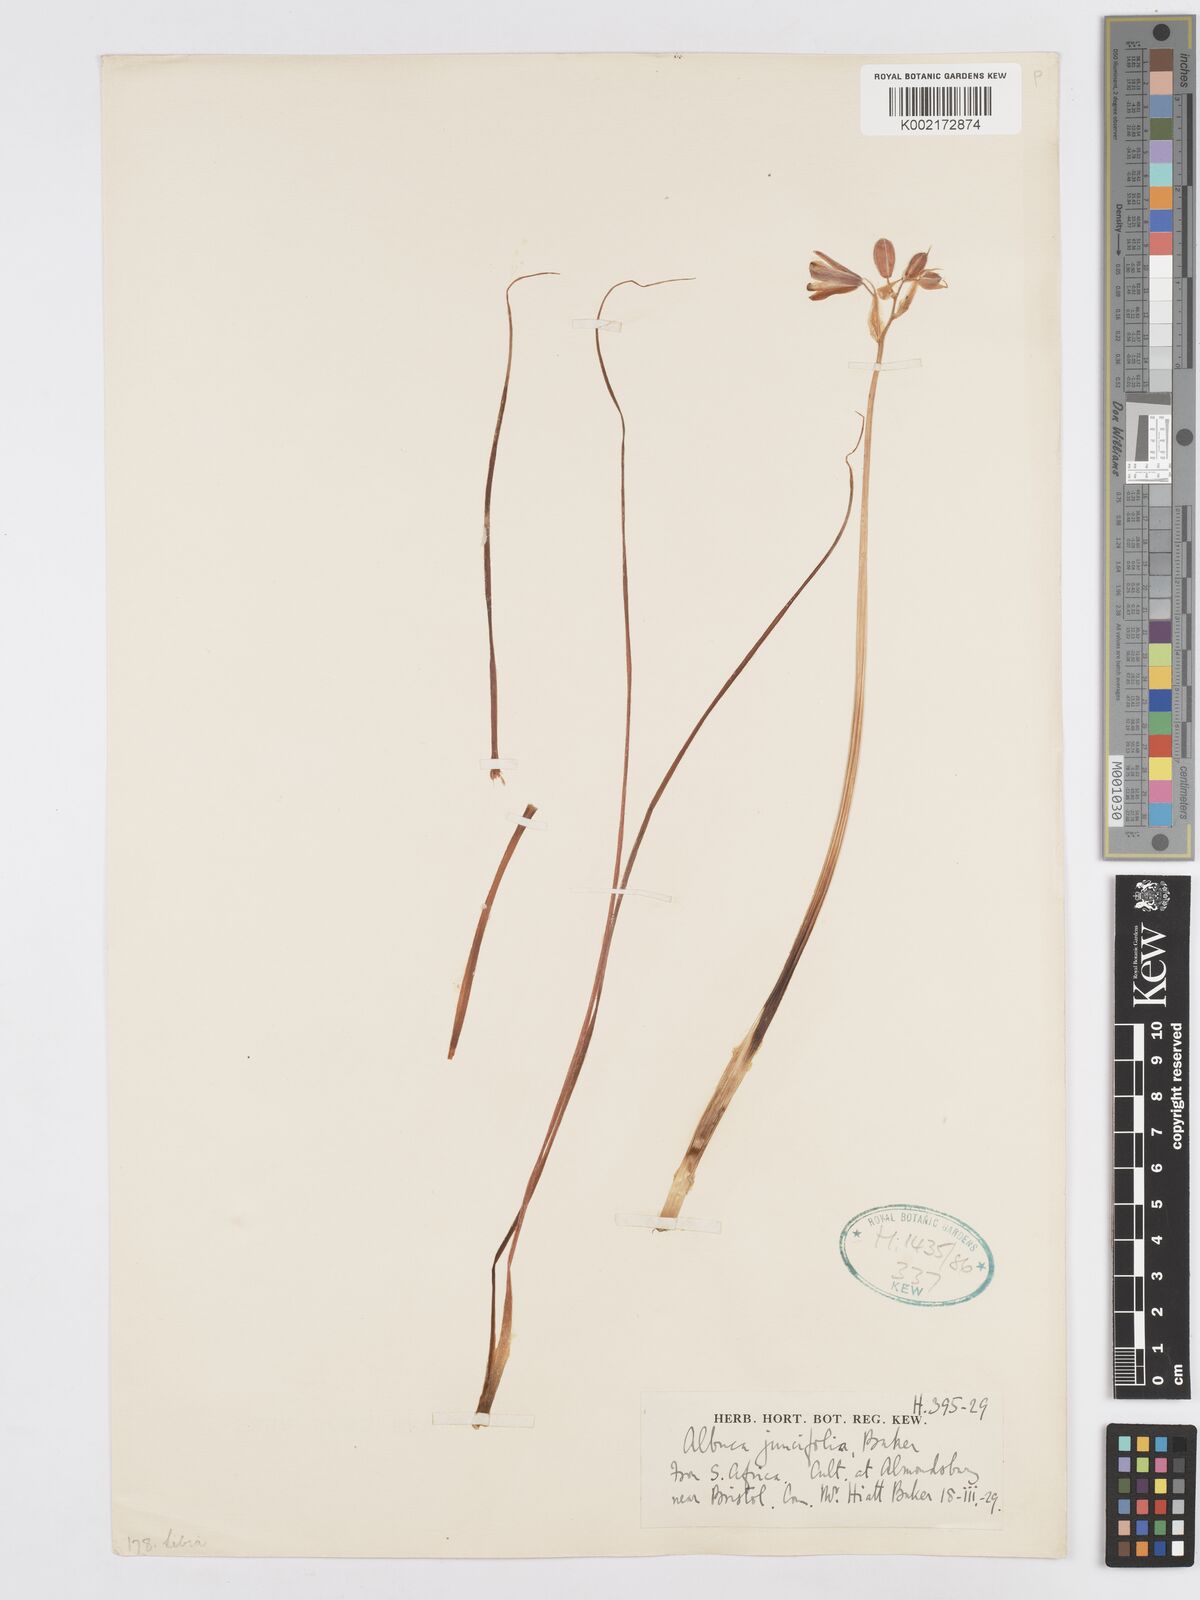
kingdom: Plantae
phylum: Tracheophyta
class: Liliopsida
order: Asparagales
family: Asparagaceae
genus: Albuca
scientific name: Albuca juncifolia
